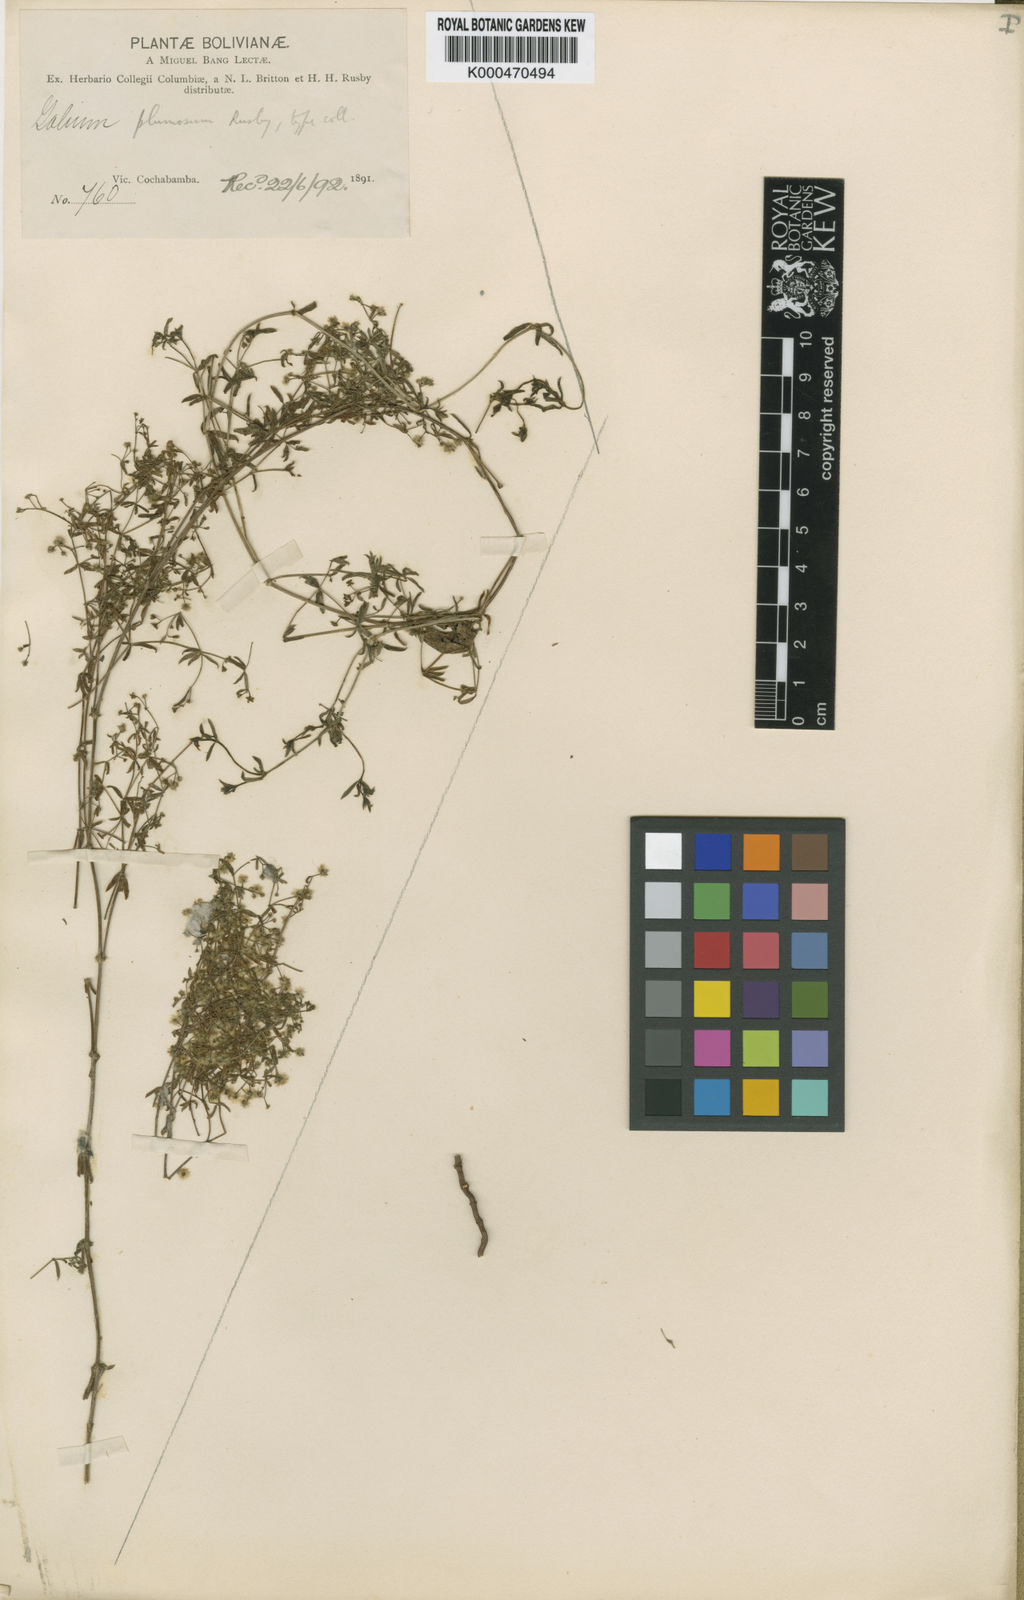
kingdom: Plantae
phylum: Tracheophyta
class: Magnoliopsida
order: Gentianales
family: Rubiaceae
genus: Galium
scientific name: Galium plumosum
